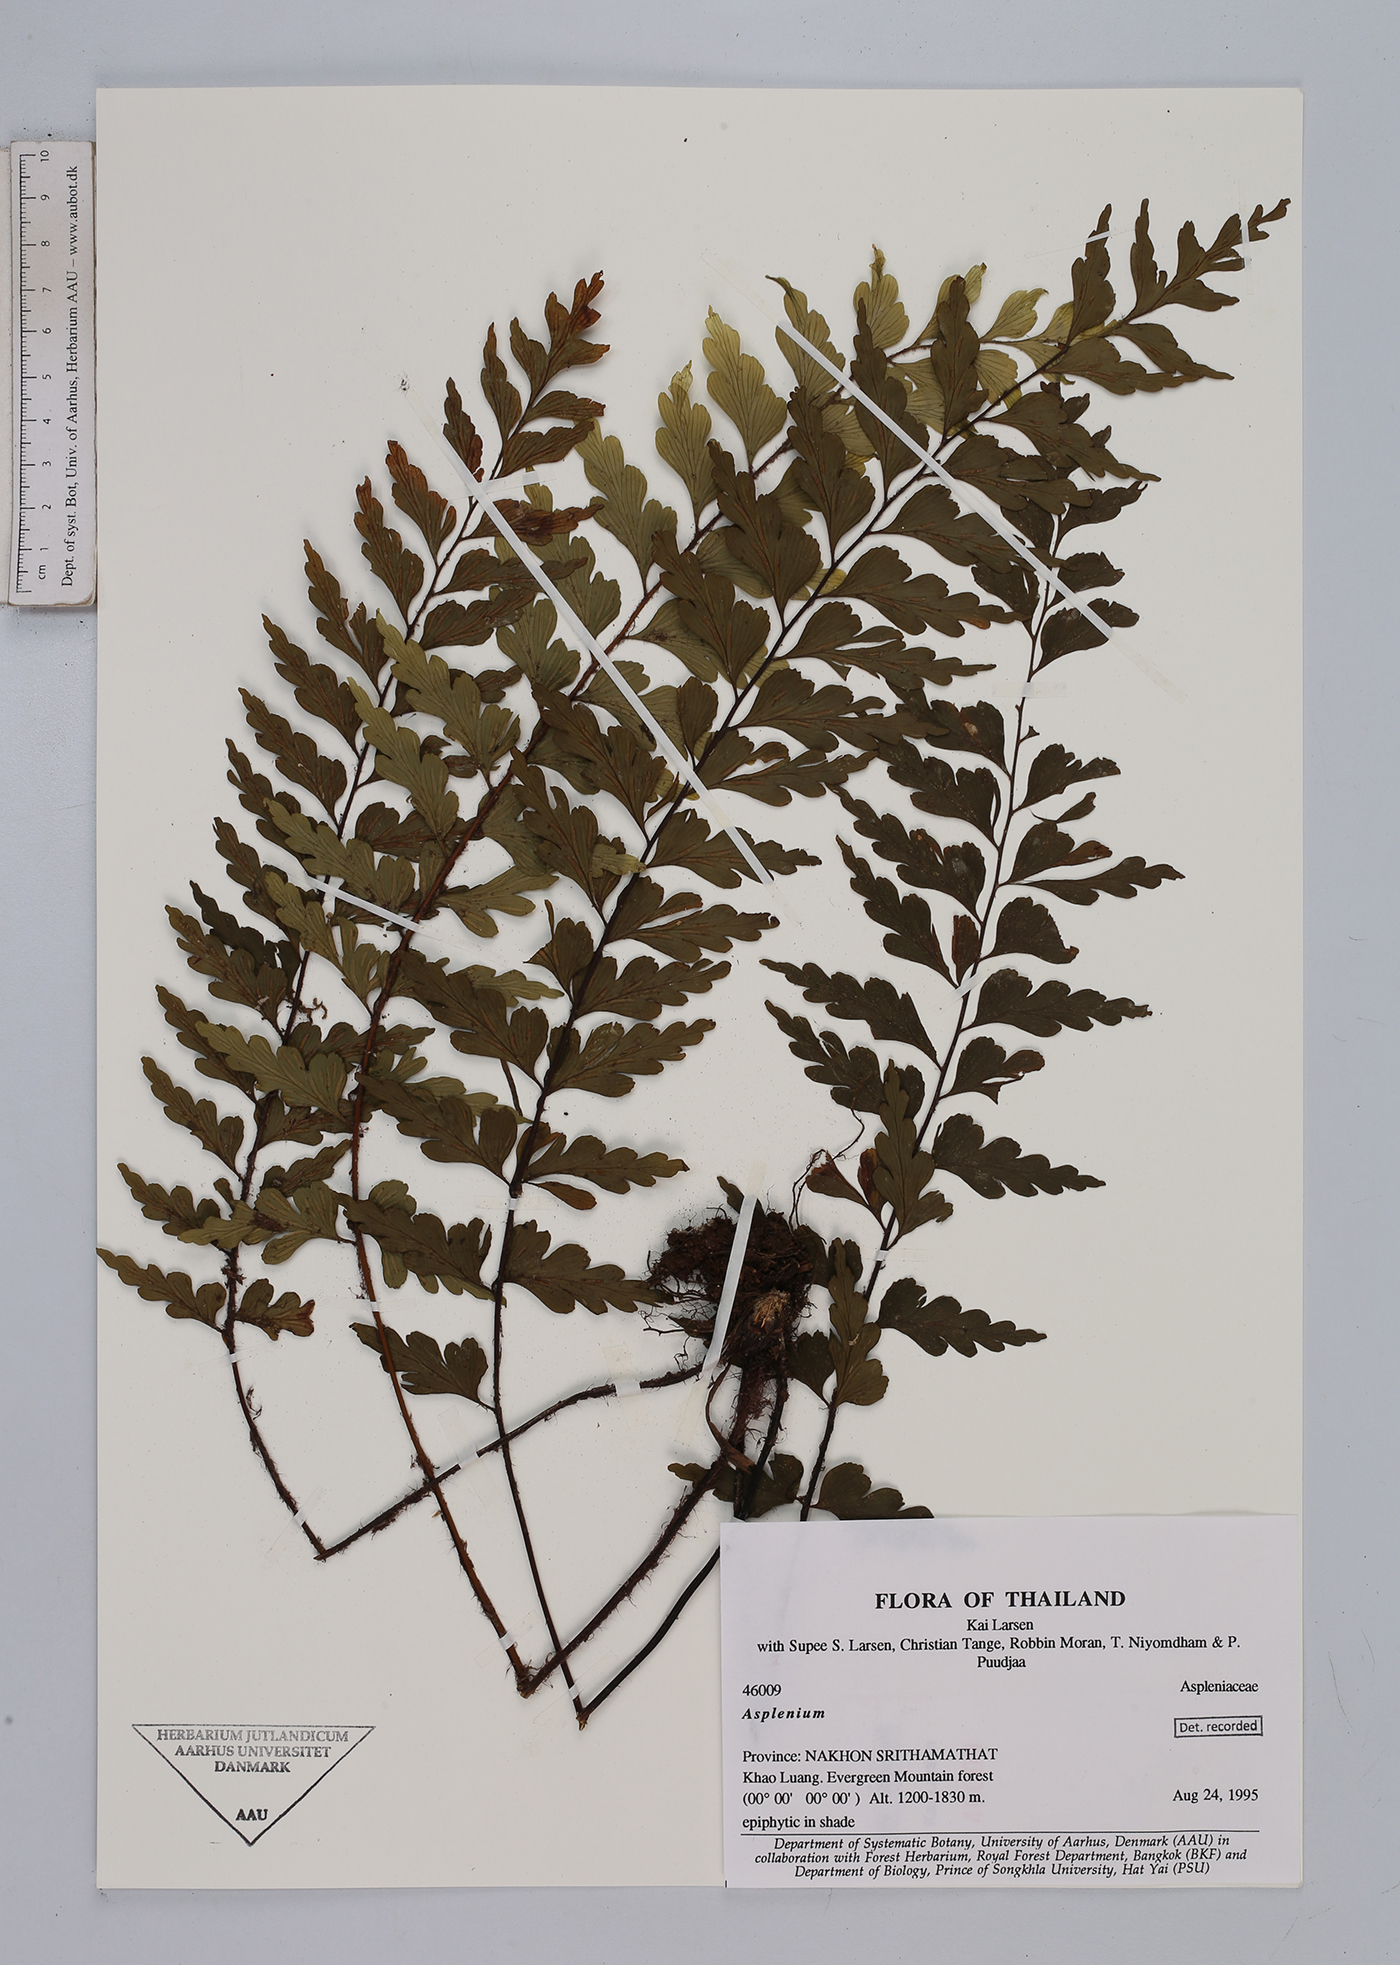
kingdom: Plantae
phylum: Tracheophyta
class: Polypodiopsida
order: Polypodiales
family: Aspleniaceae
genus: Asplenium
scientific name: Asplenium
